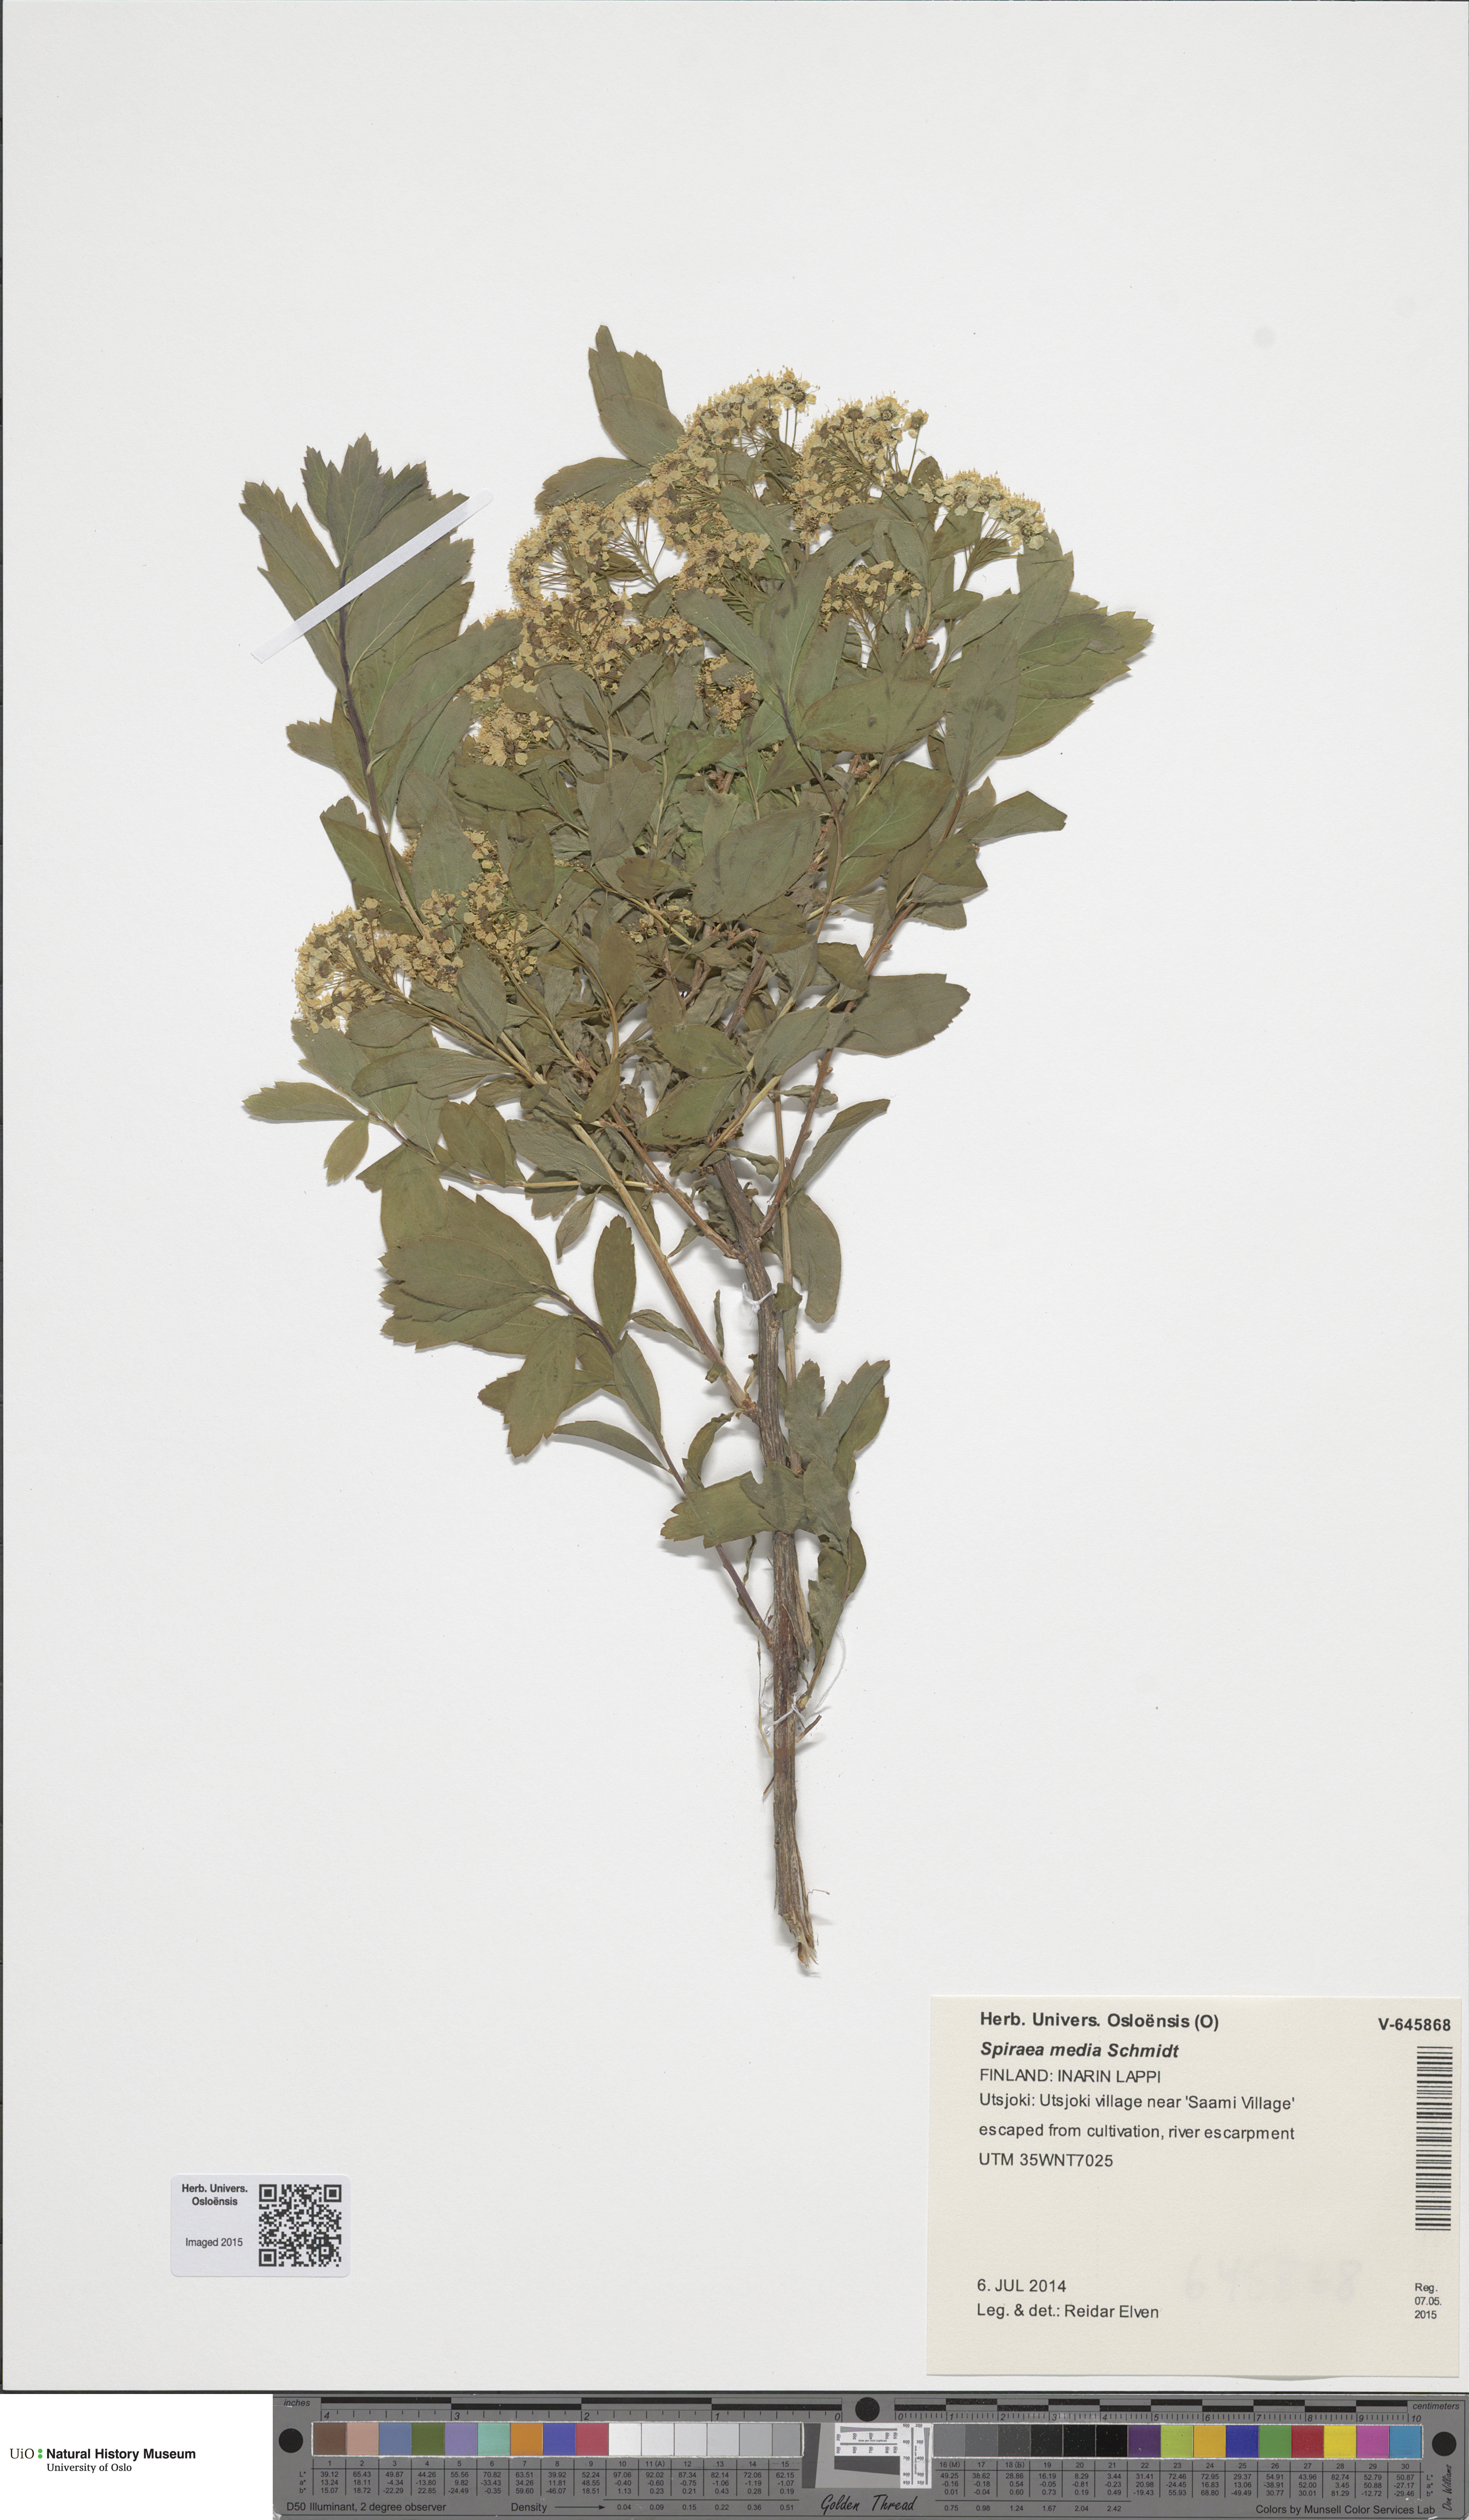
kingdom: Plantae
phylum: Tracheophyta
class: Magnoliopsida
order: Rosales
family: Rosaceae
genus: Spiraea
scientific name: Spiraea media
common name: Russian spiraea
